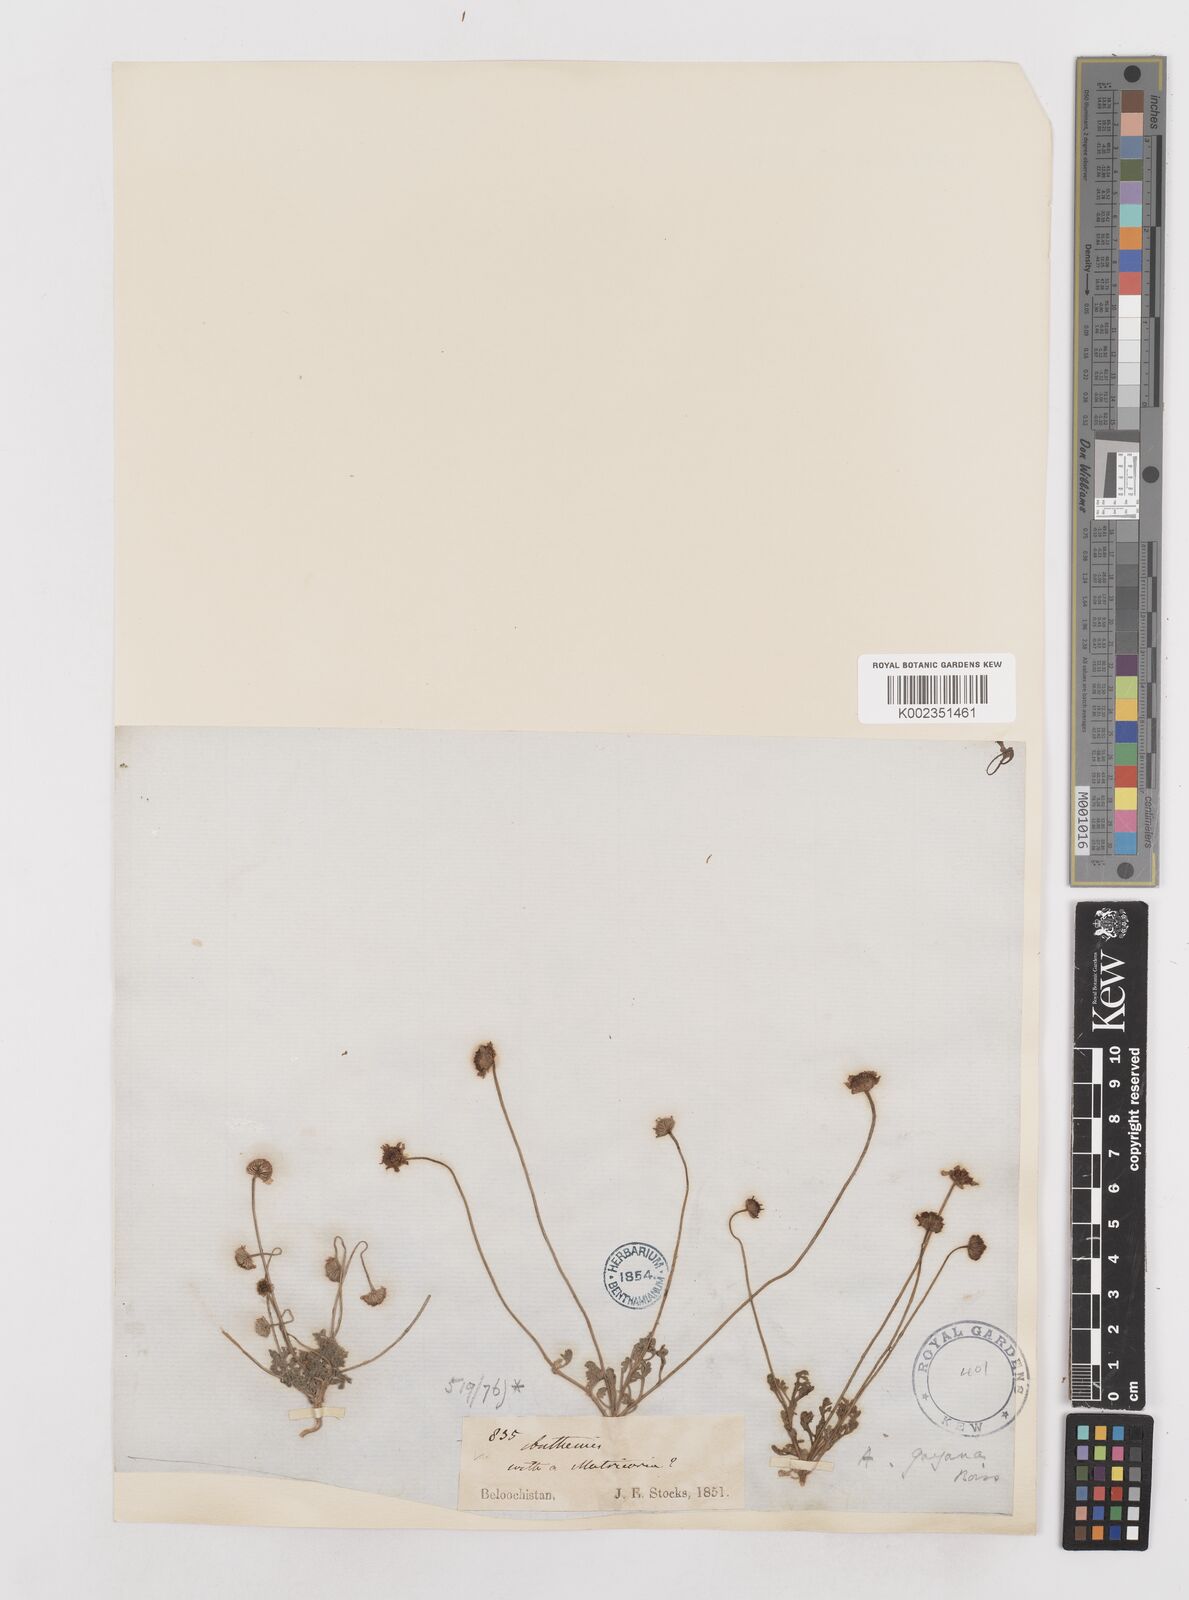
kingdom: Plantae
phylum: Tracheophyta
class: Magnoliopsida
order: Asterales
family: Asteraceae
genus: Anthemis
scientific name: Anthemis gayana
